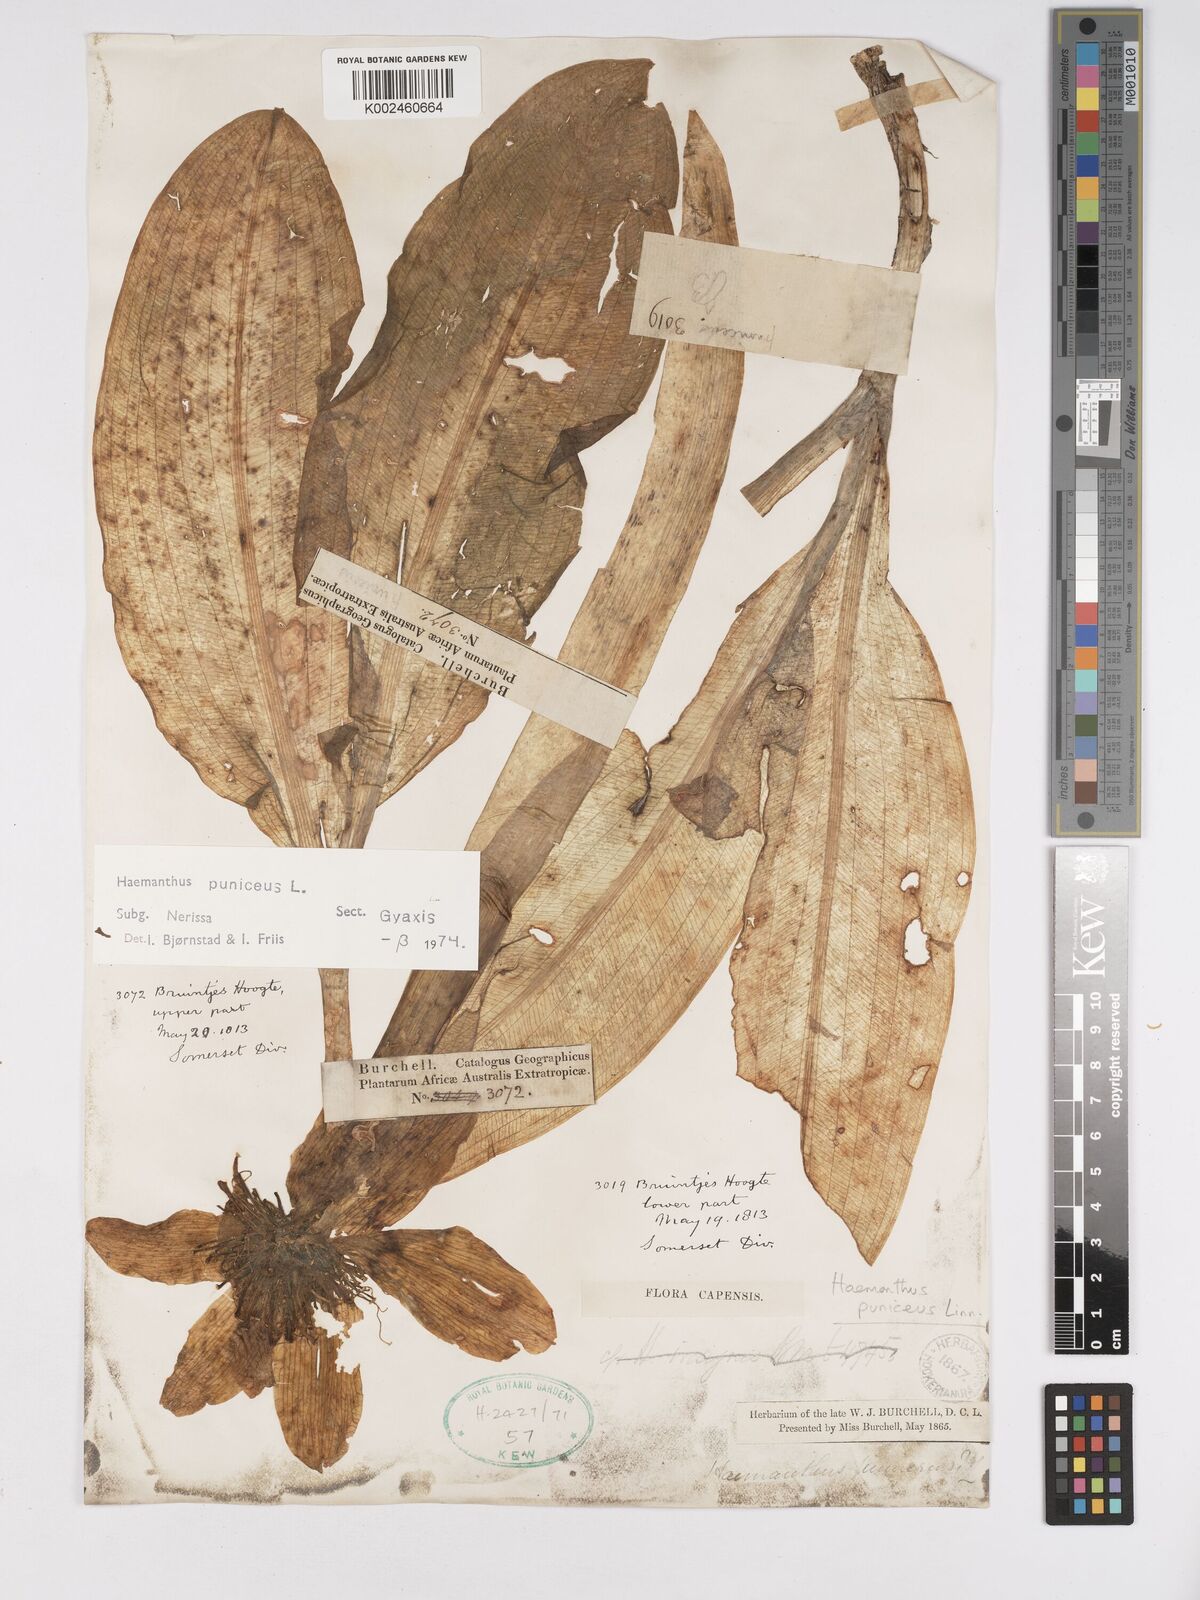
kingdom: Plantae
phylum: Tracheophyta
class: Liliopsida
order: Asparagales
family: Amaryllidaceae
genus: Scadoxus
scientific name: Scadoxus puniceus
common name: Royal-paintbrush
